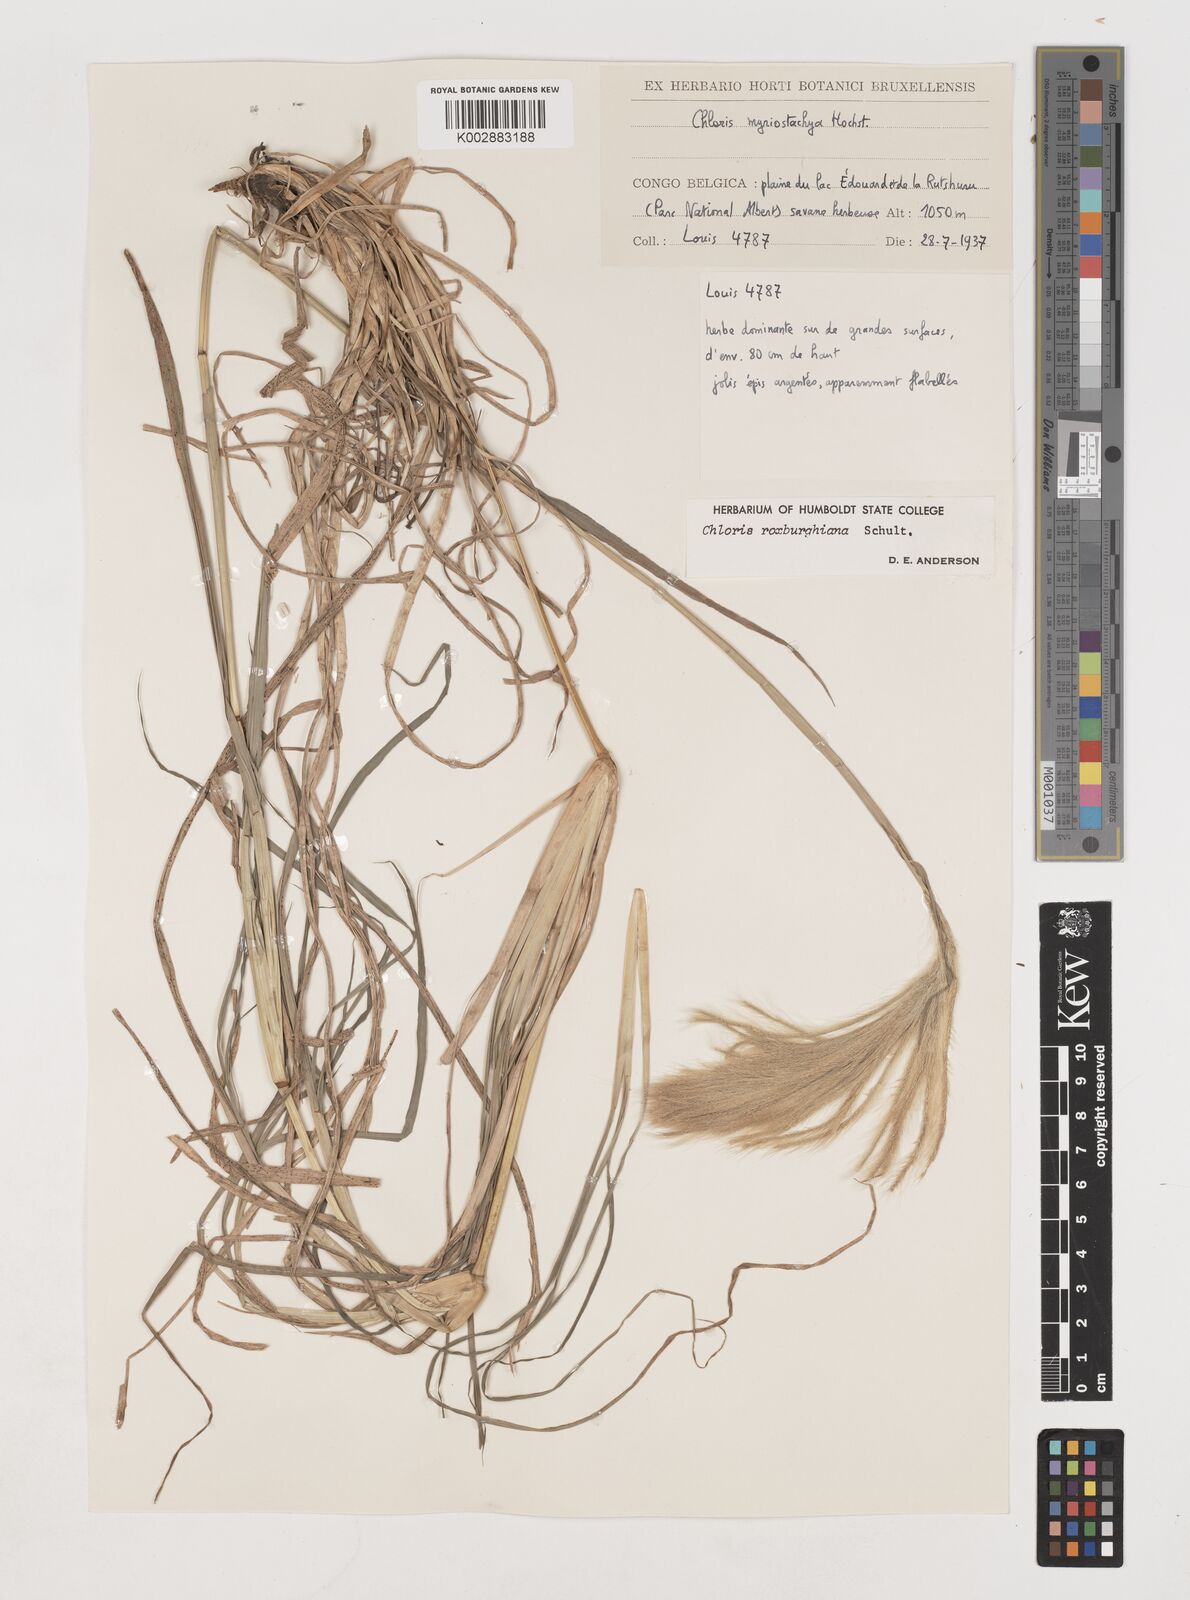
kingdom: Plantae
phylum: Tracheophyta
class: Liliopsida
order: Poales
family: Poaceae
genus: Tetrapogon
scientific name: Tetrapogon roxburghiana
